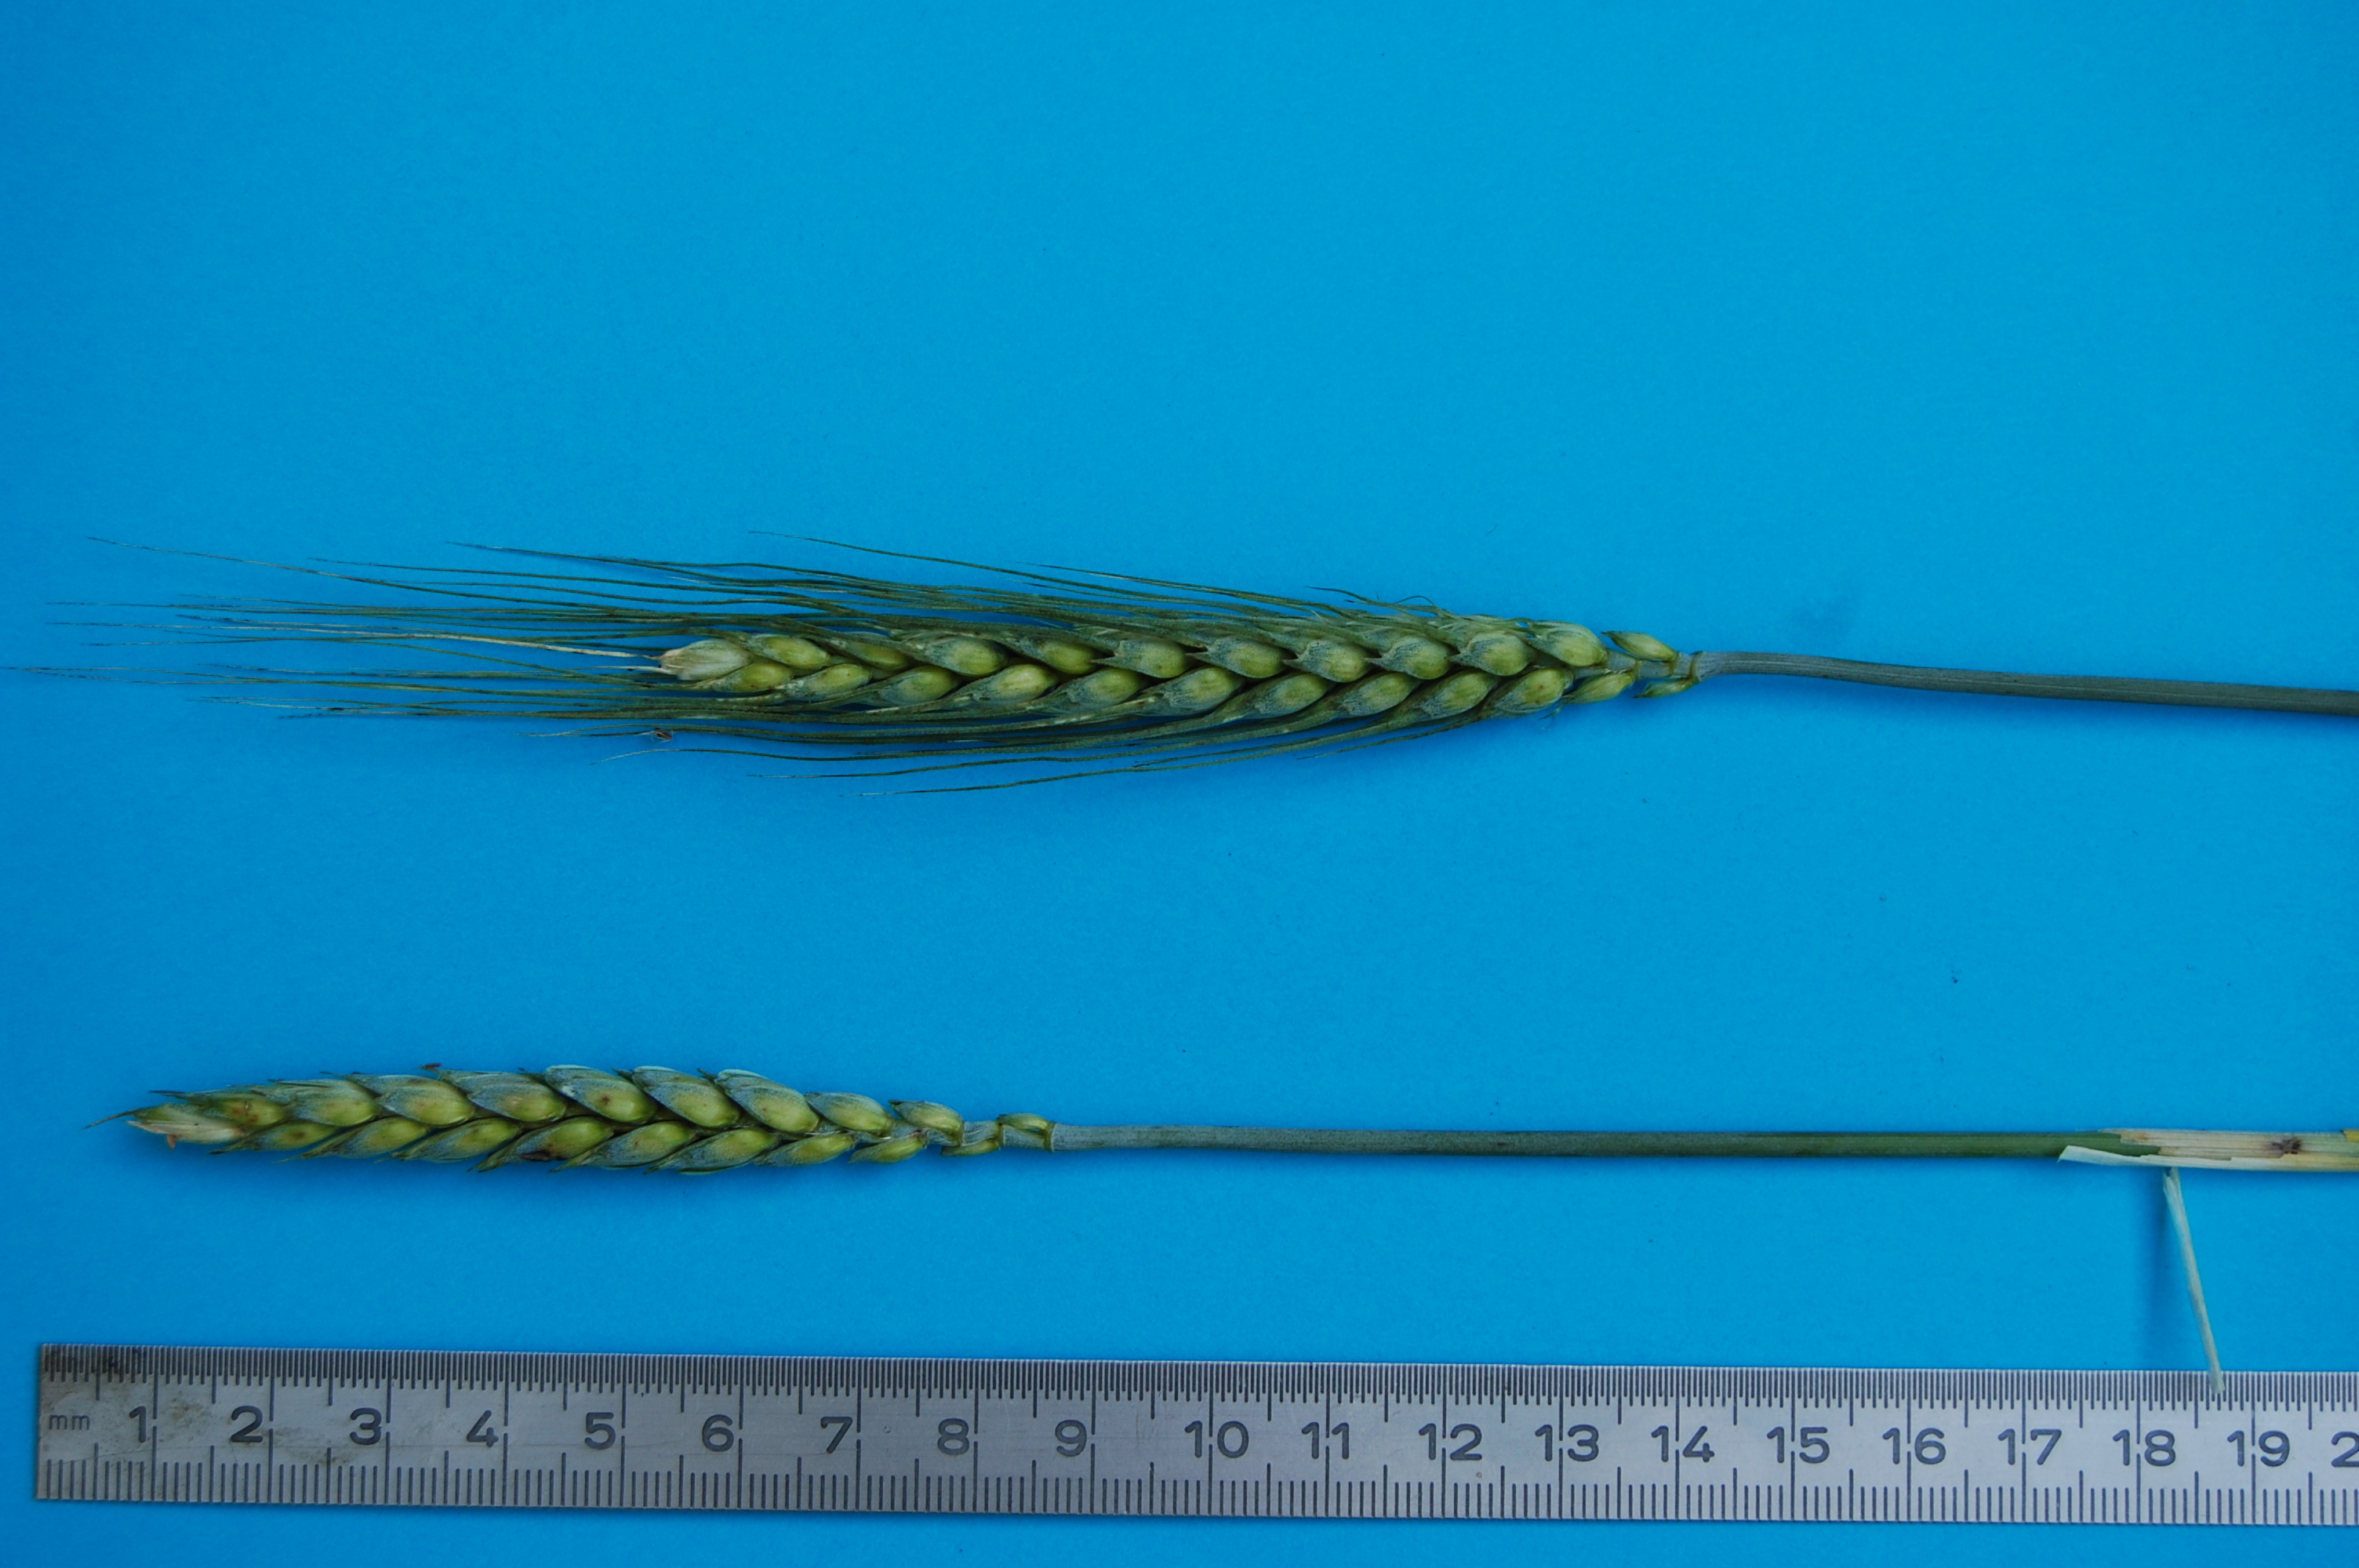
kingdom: Plantae
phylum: Tracheophyta
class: Liliopsida
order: Poales
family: Poaceae
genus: Triticum
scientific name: Triticum aestivum
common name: Common wheat
